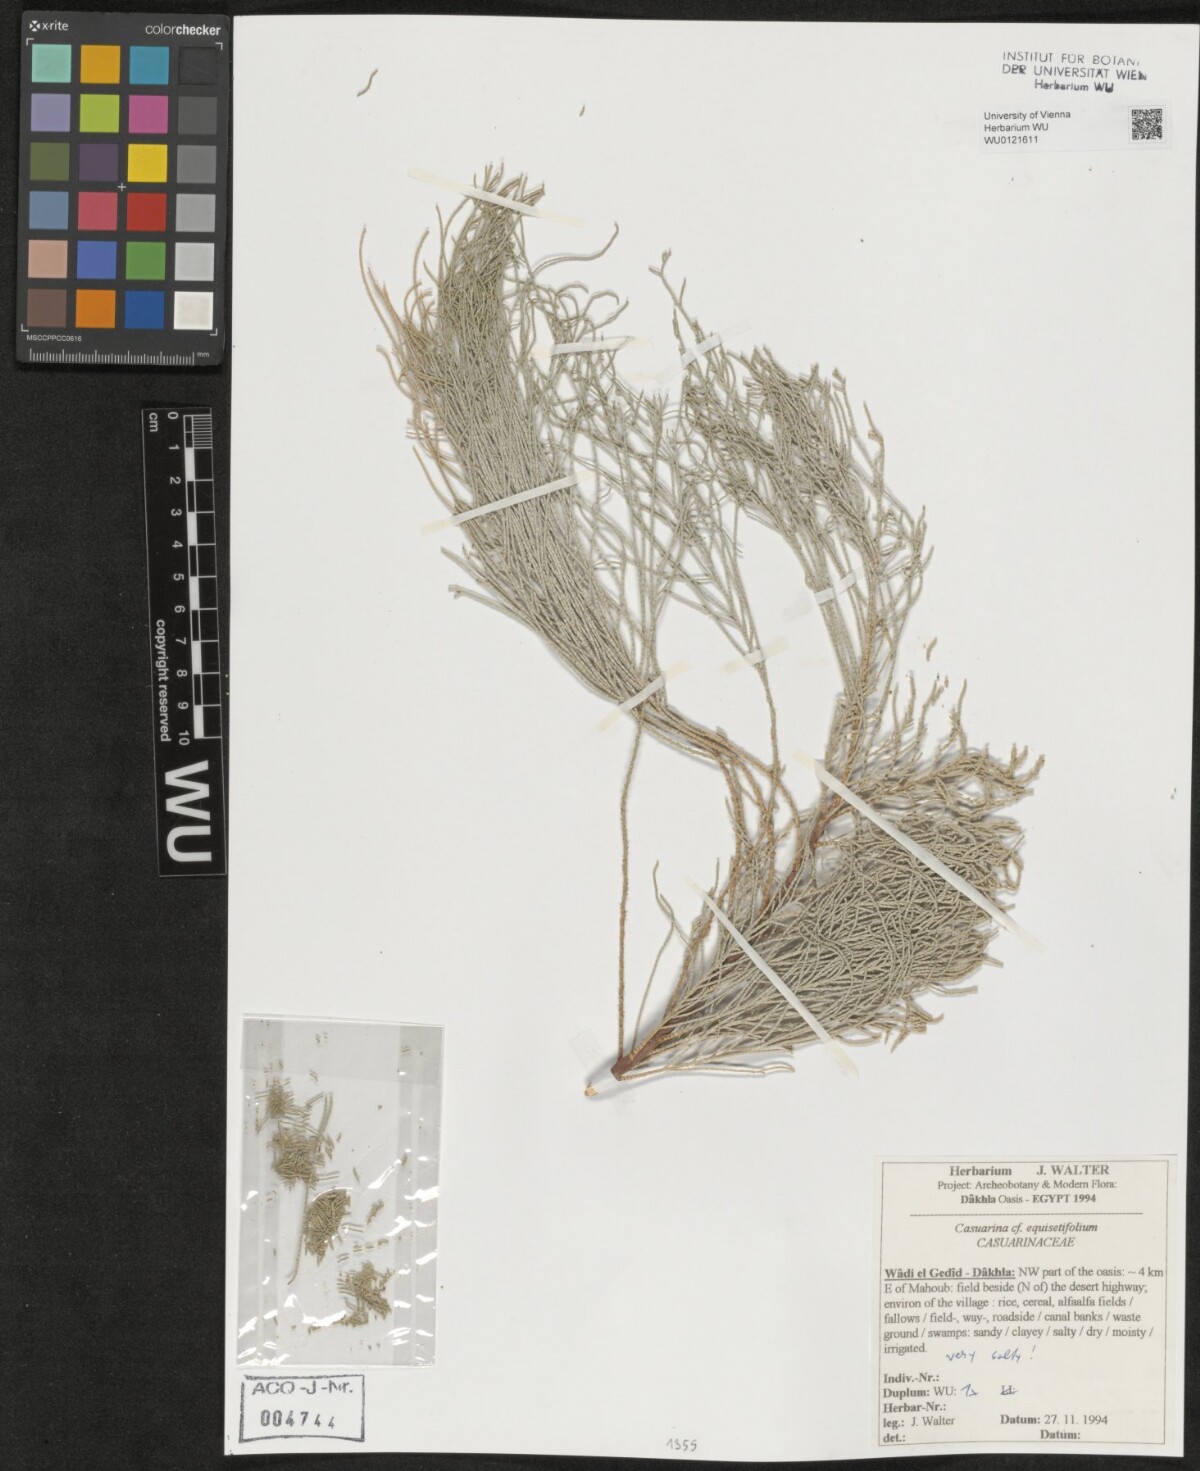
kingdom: Plantae
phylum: Tracheophyta
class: Magnoliopsida
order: Fagales
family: Casuarinaceae
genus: Casuarina
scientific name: Casuarina equisetifolia
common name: Beach sheoak
